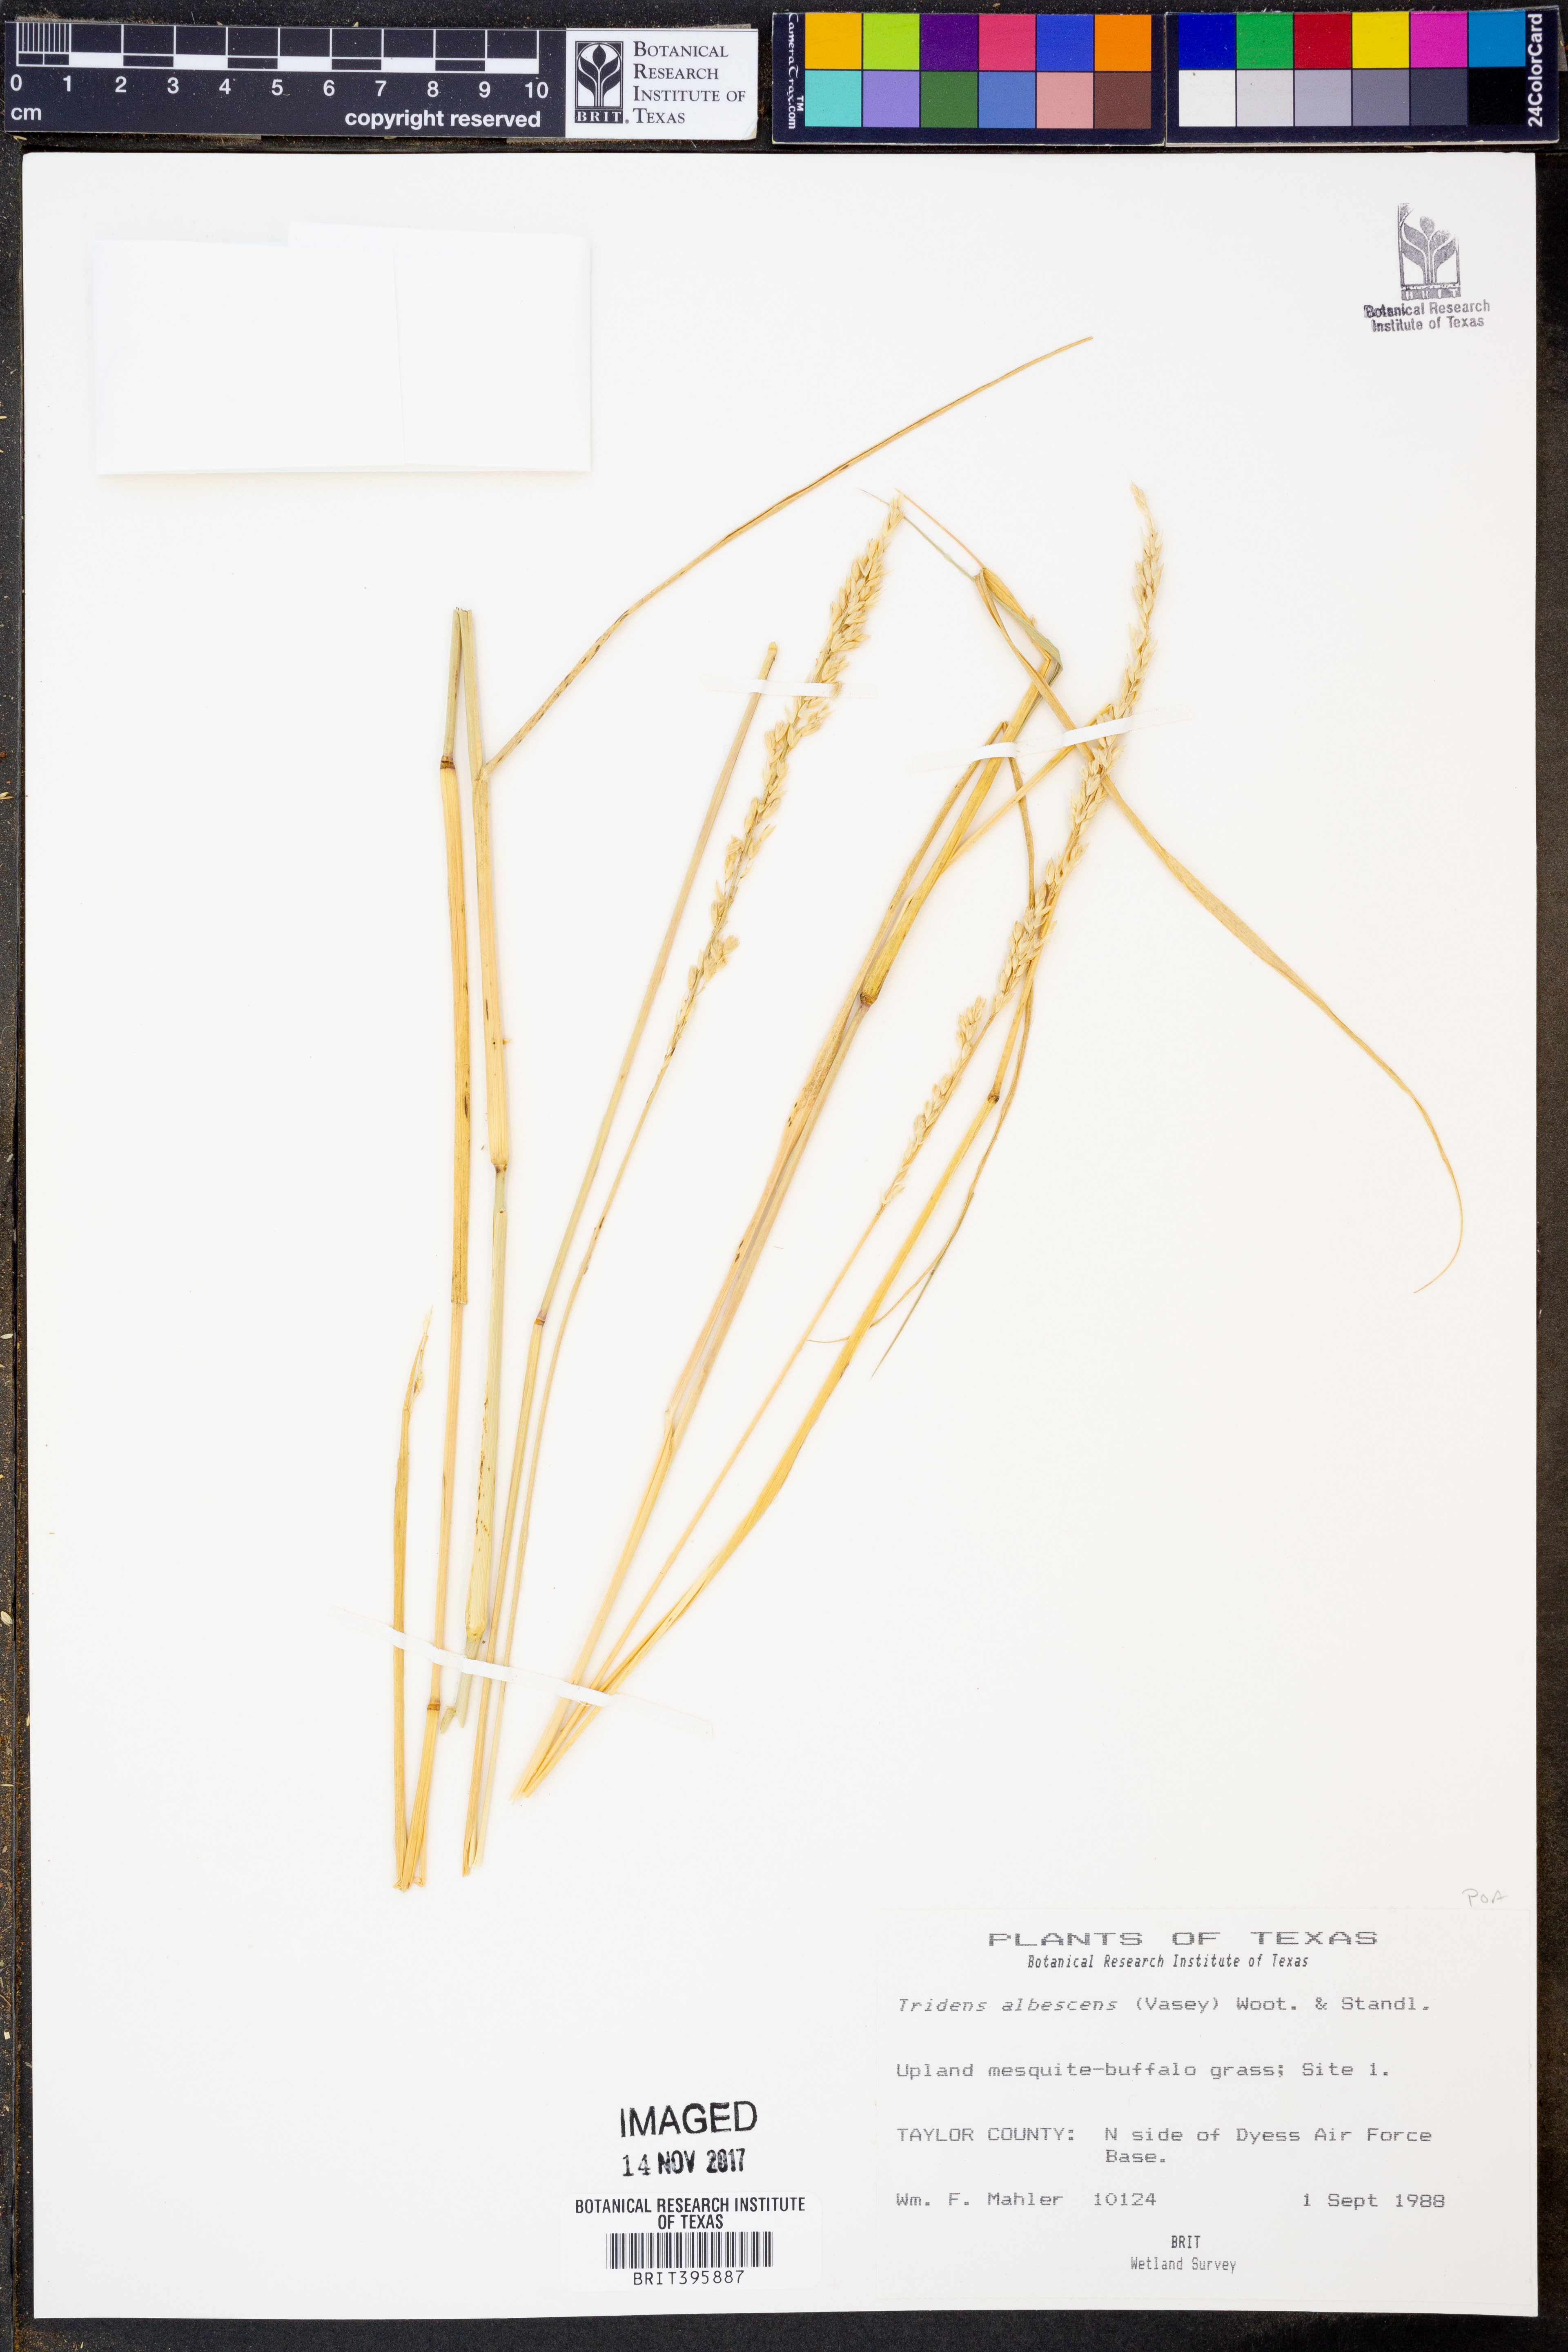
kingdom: Plantae
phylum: Tracheophyta
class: Liliopsida
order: Poales
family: Poaceae
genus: Tridens
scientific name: Tridens albescens
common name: White tridens
